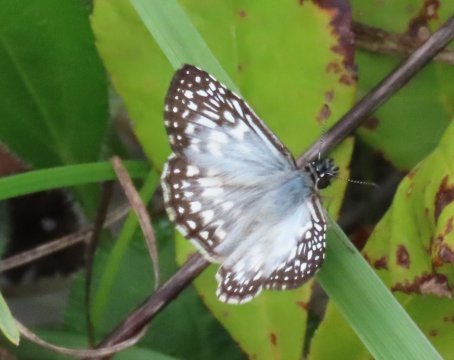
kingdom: Animalia
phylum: Arthropoda
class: Insecta
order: Lepidoptera
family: Hesperiidae
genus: Pyrgus
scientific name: Pyrgus oileus
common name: Tropical Checkered-Skipper
